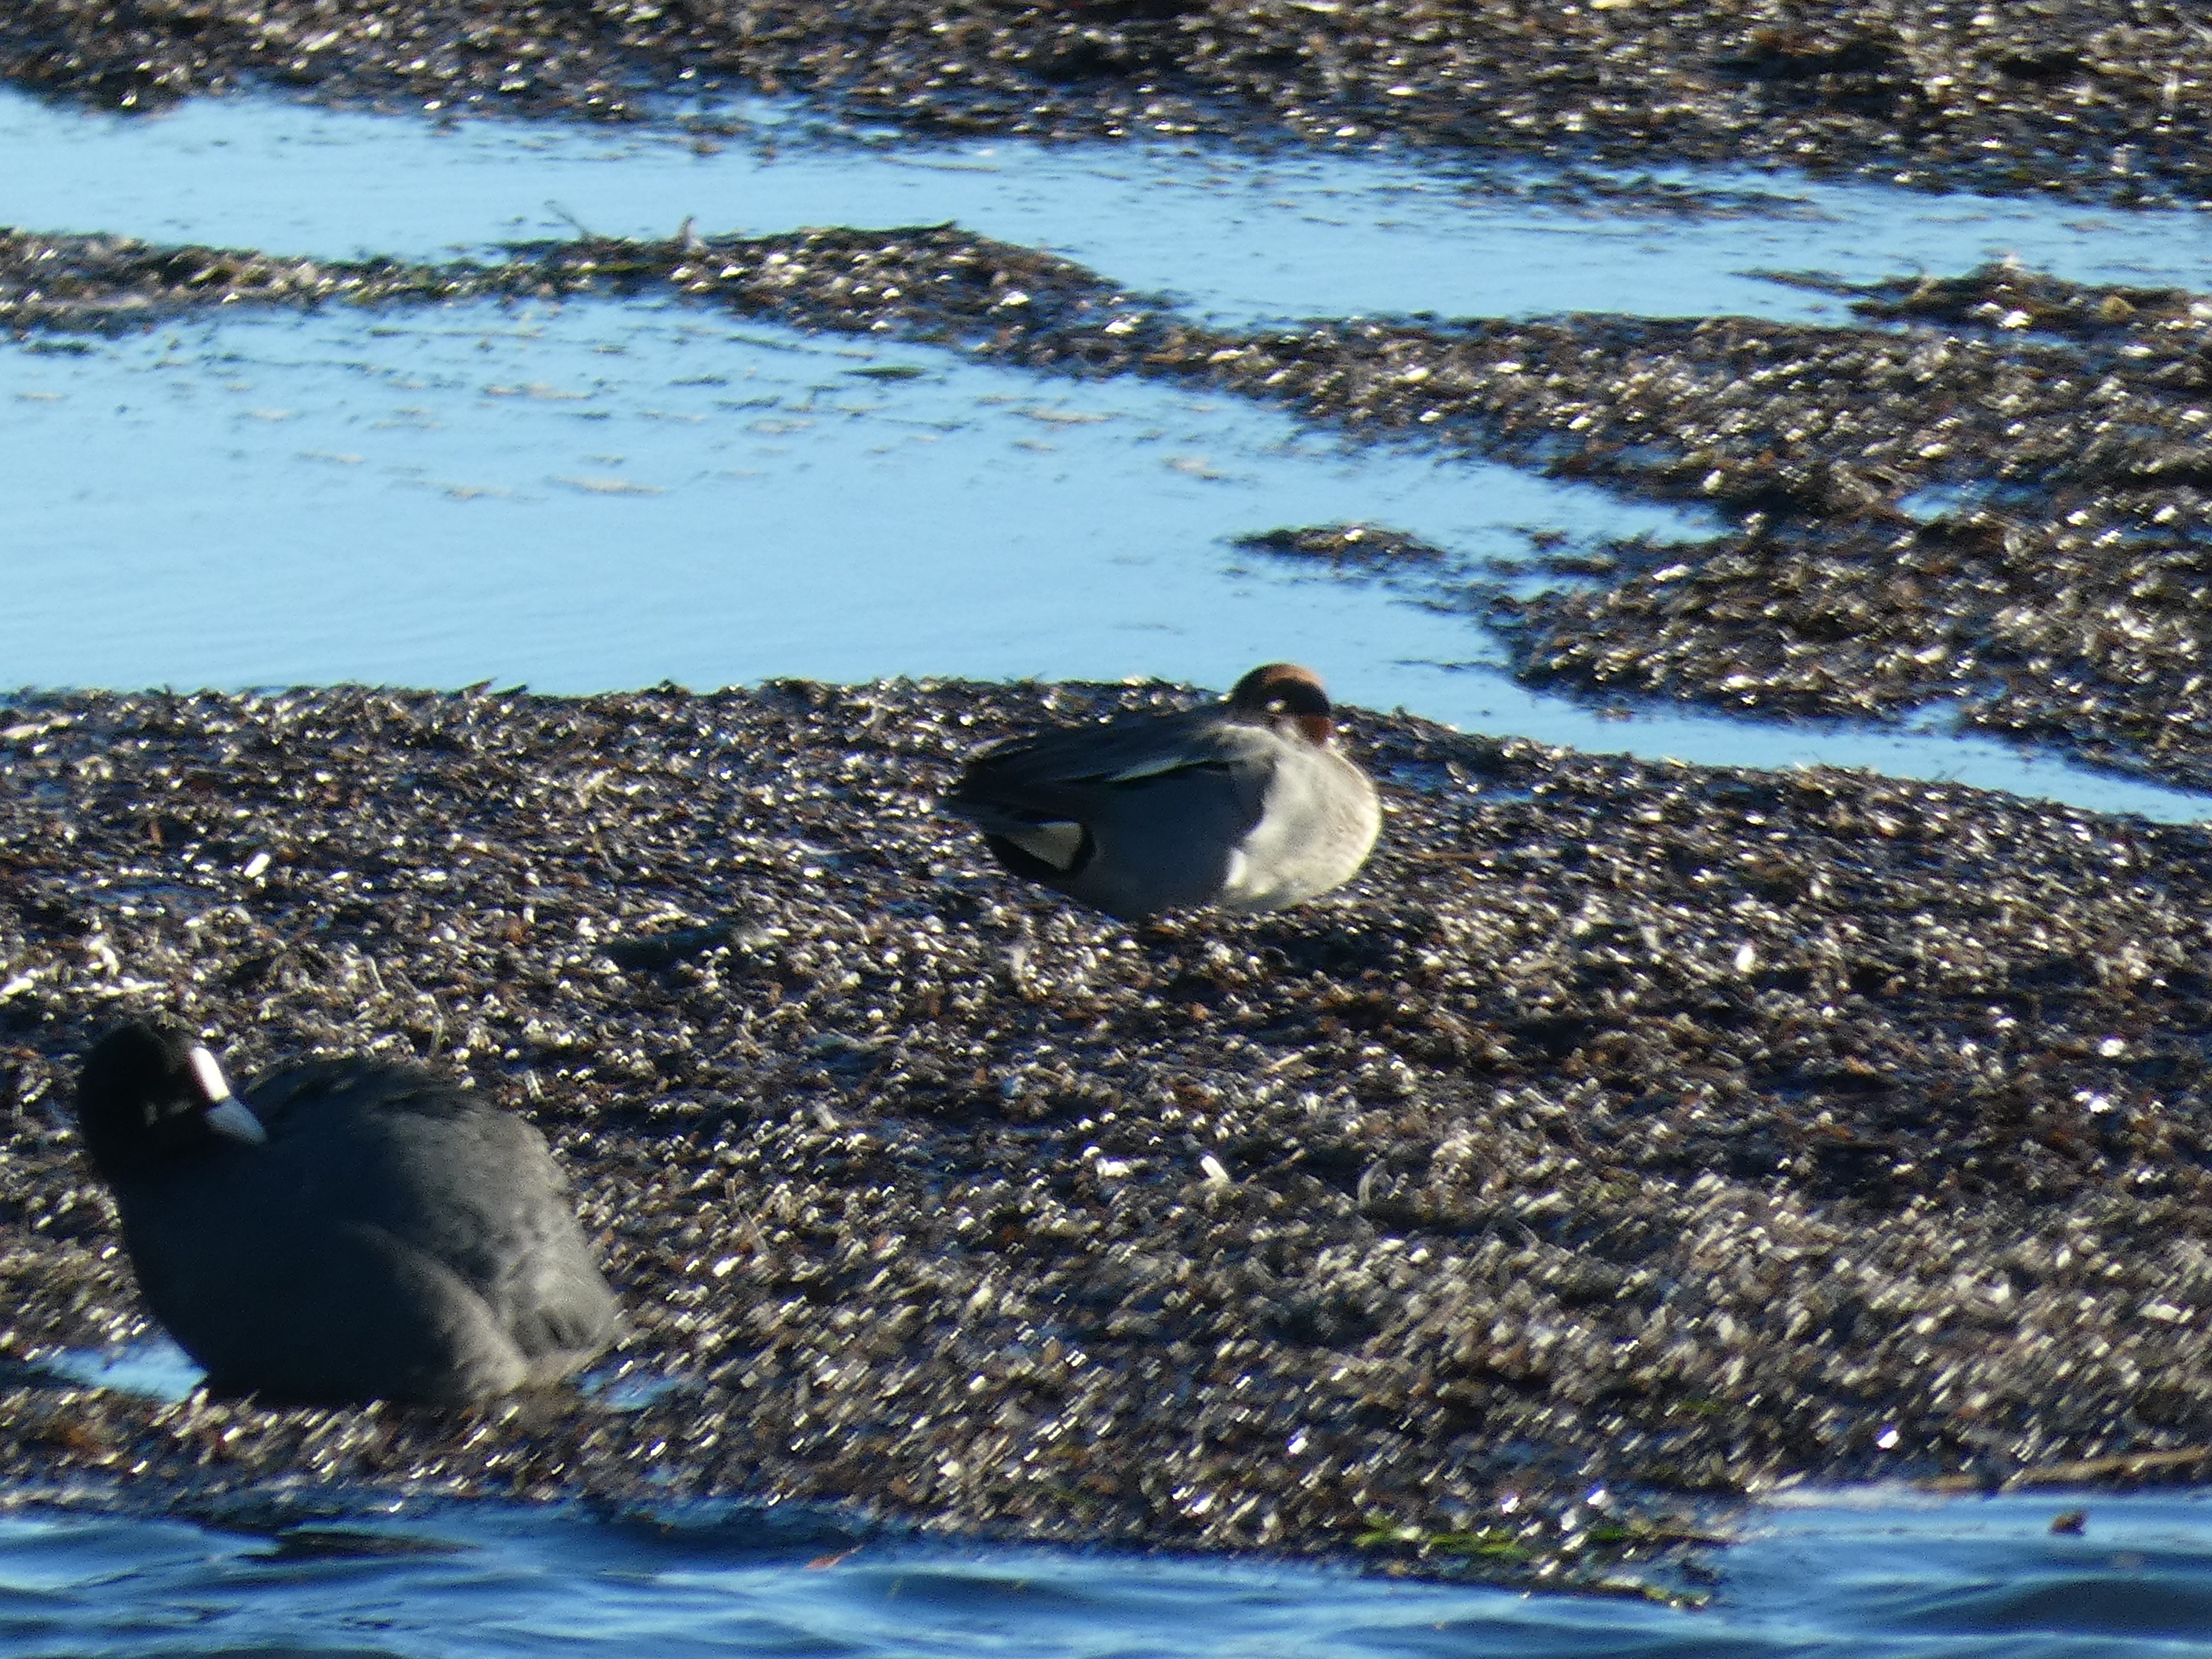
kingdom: Animalia
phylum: Chordata
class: Aves
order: Anseriformes
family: Anatidae
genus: Anas
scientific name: Anas crecca
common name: Krikand
